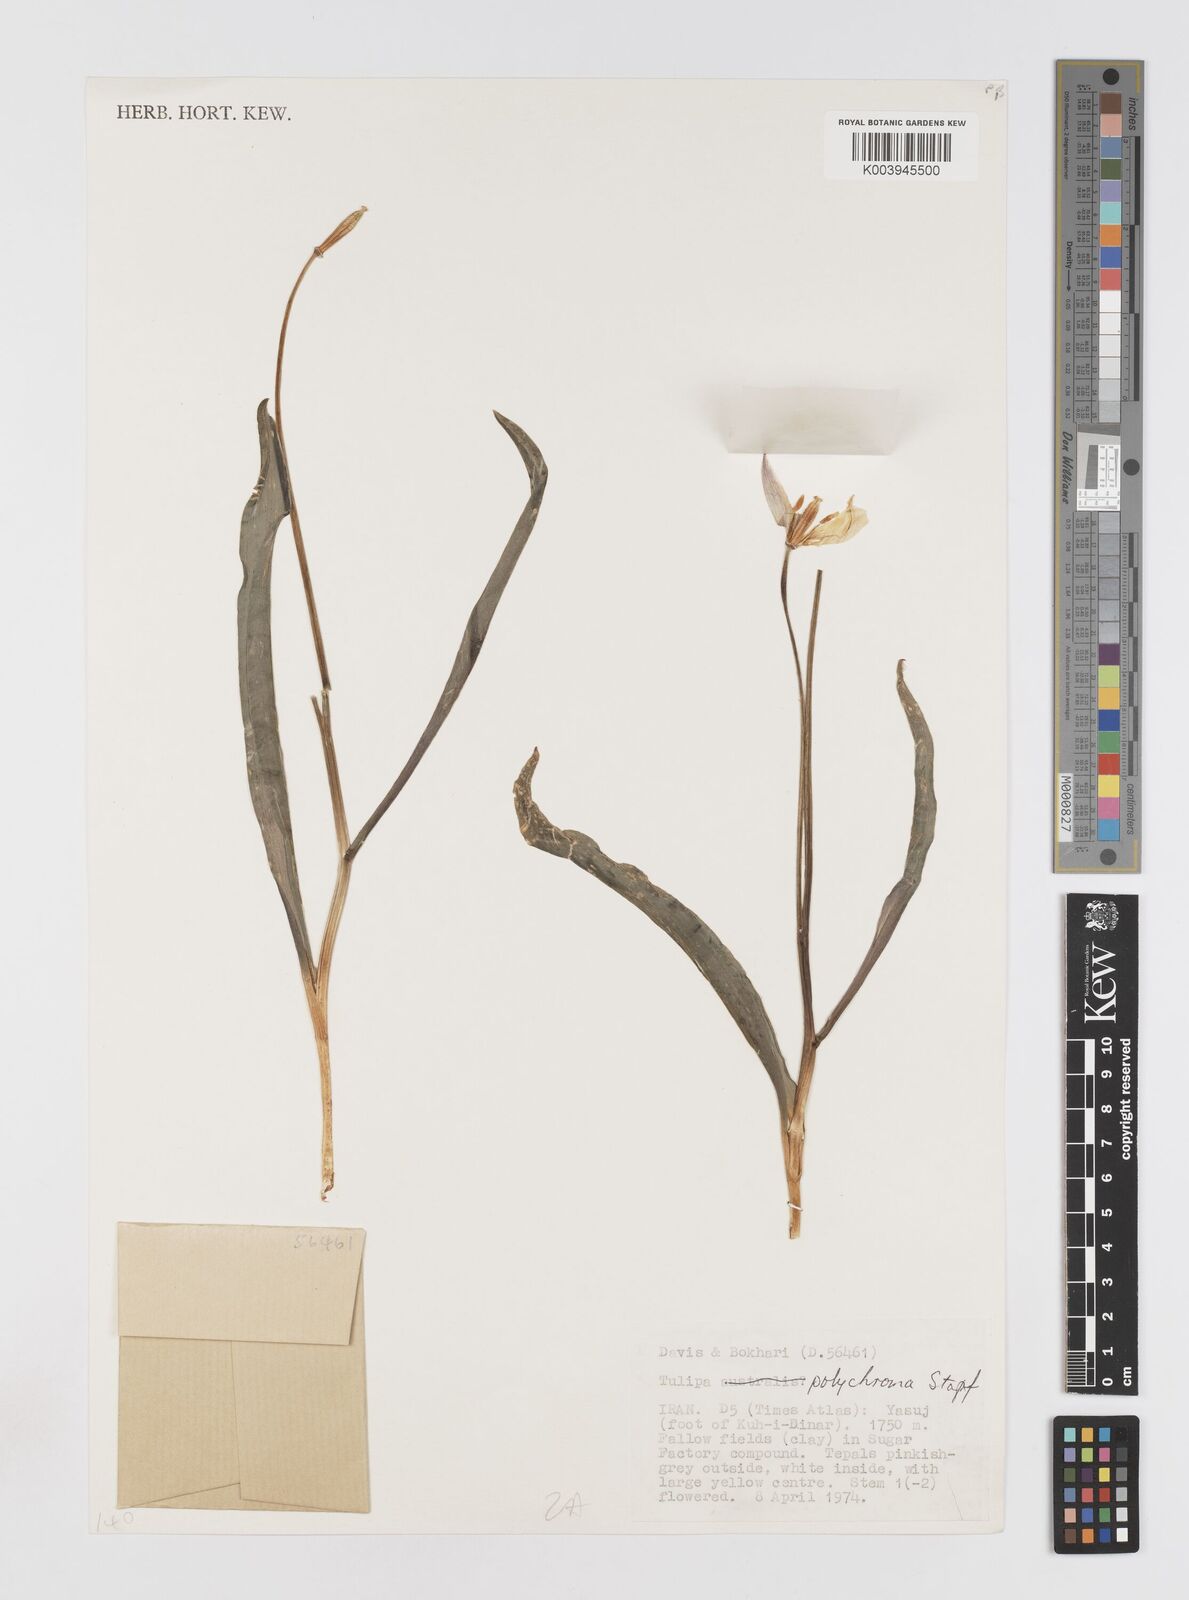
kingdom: Plantae
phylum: Tracheophyta
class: Liliopsida
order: Liliales
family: Liliaceae
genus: Tulipa
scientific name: Tulipa biflora
